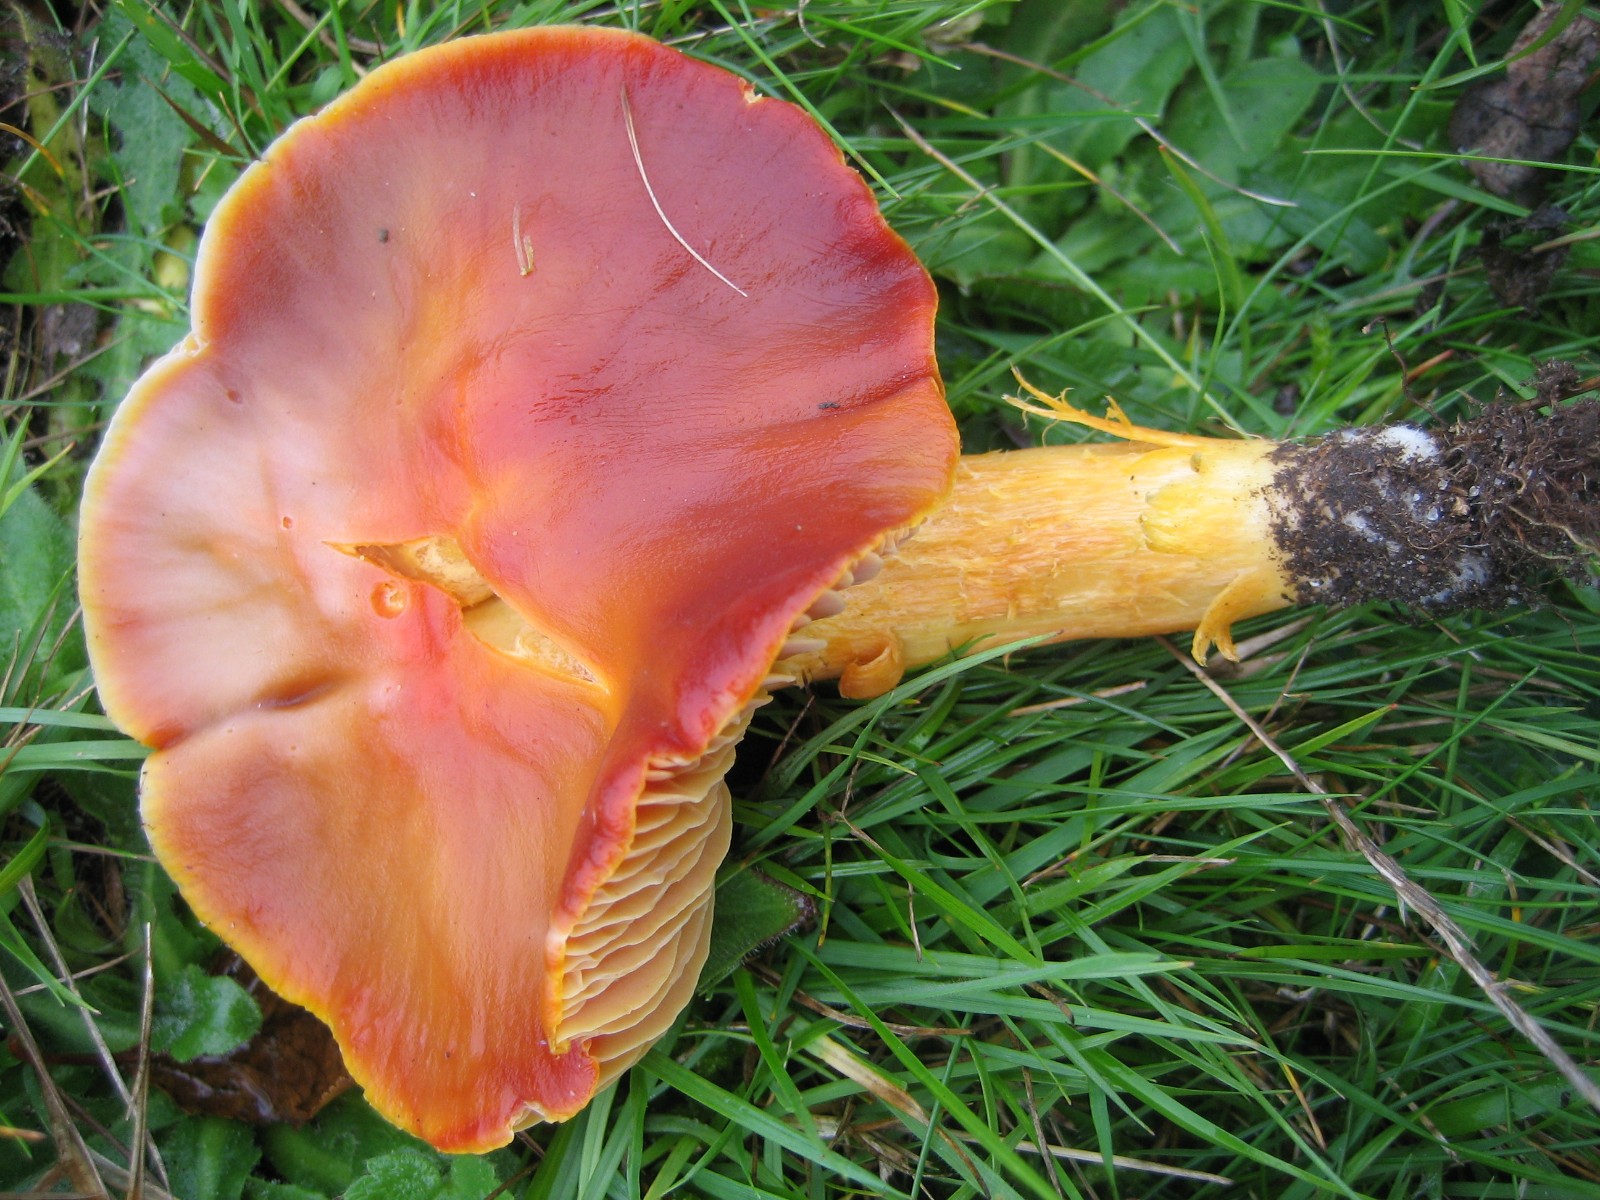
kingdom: Fungi
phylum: Basidiomycota
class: Agaricomycetes
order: Agaricales
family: Hygrophoraceae
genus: Hygrocybe
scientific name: Hygrocybe punicea
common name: skarlagen-vokshat
